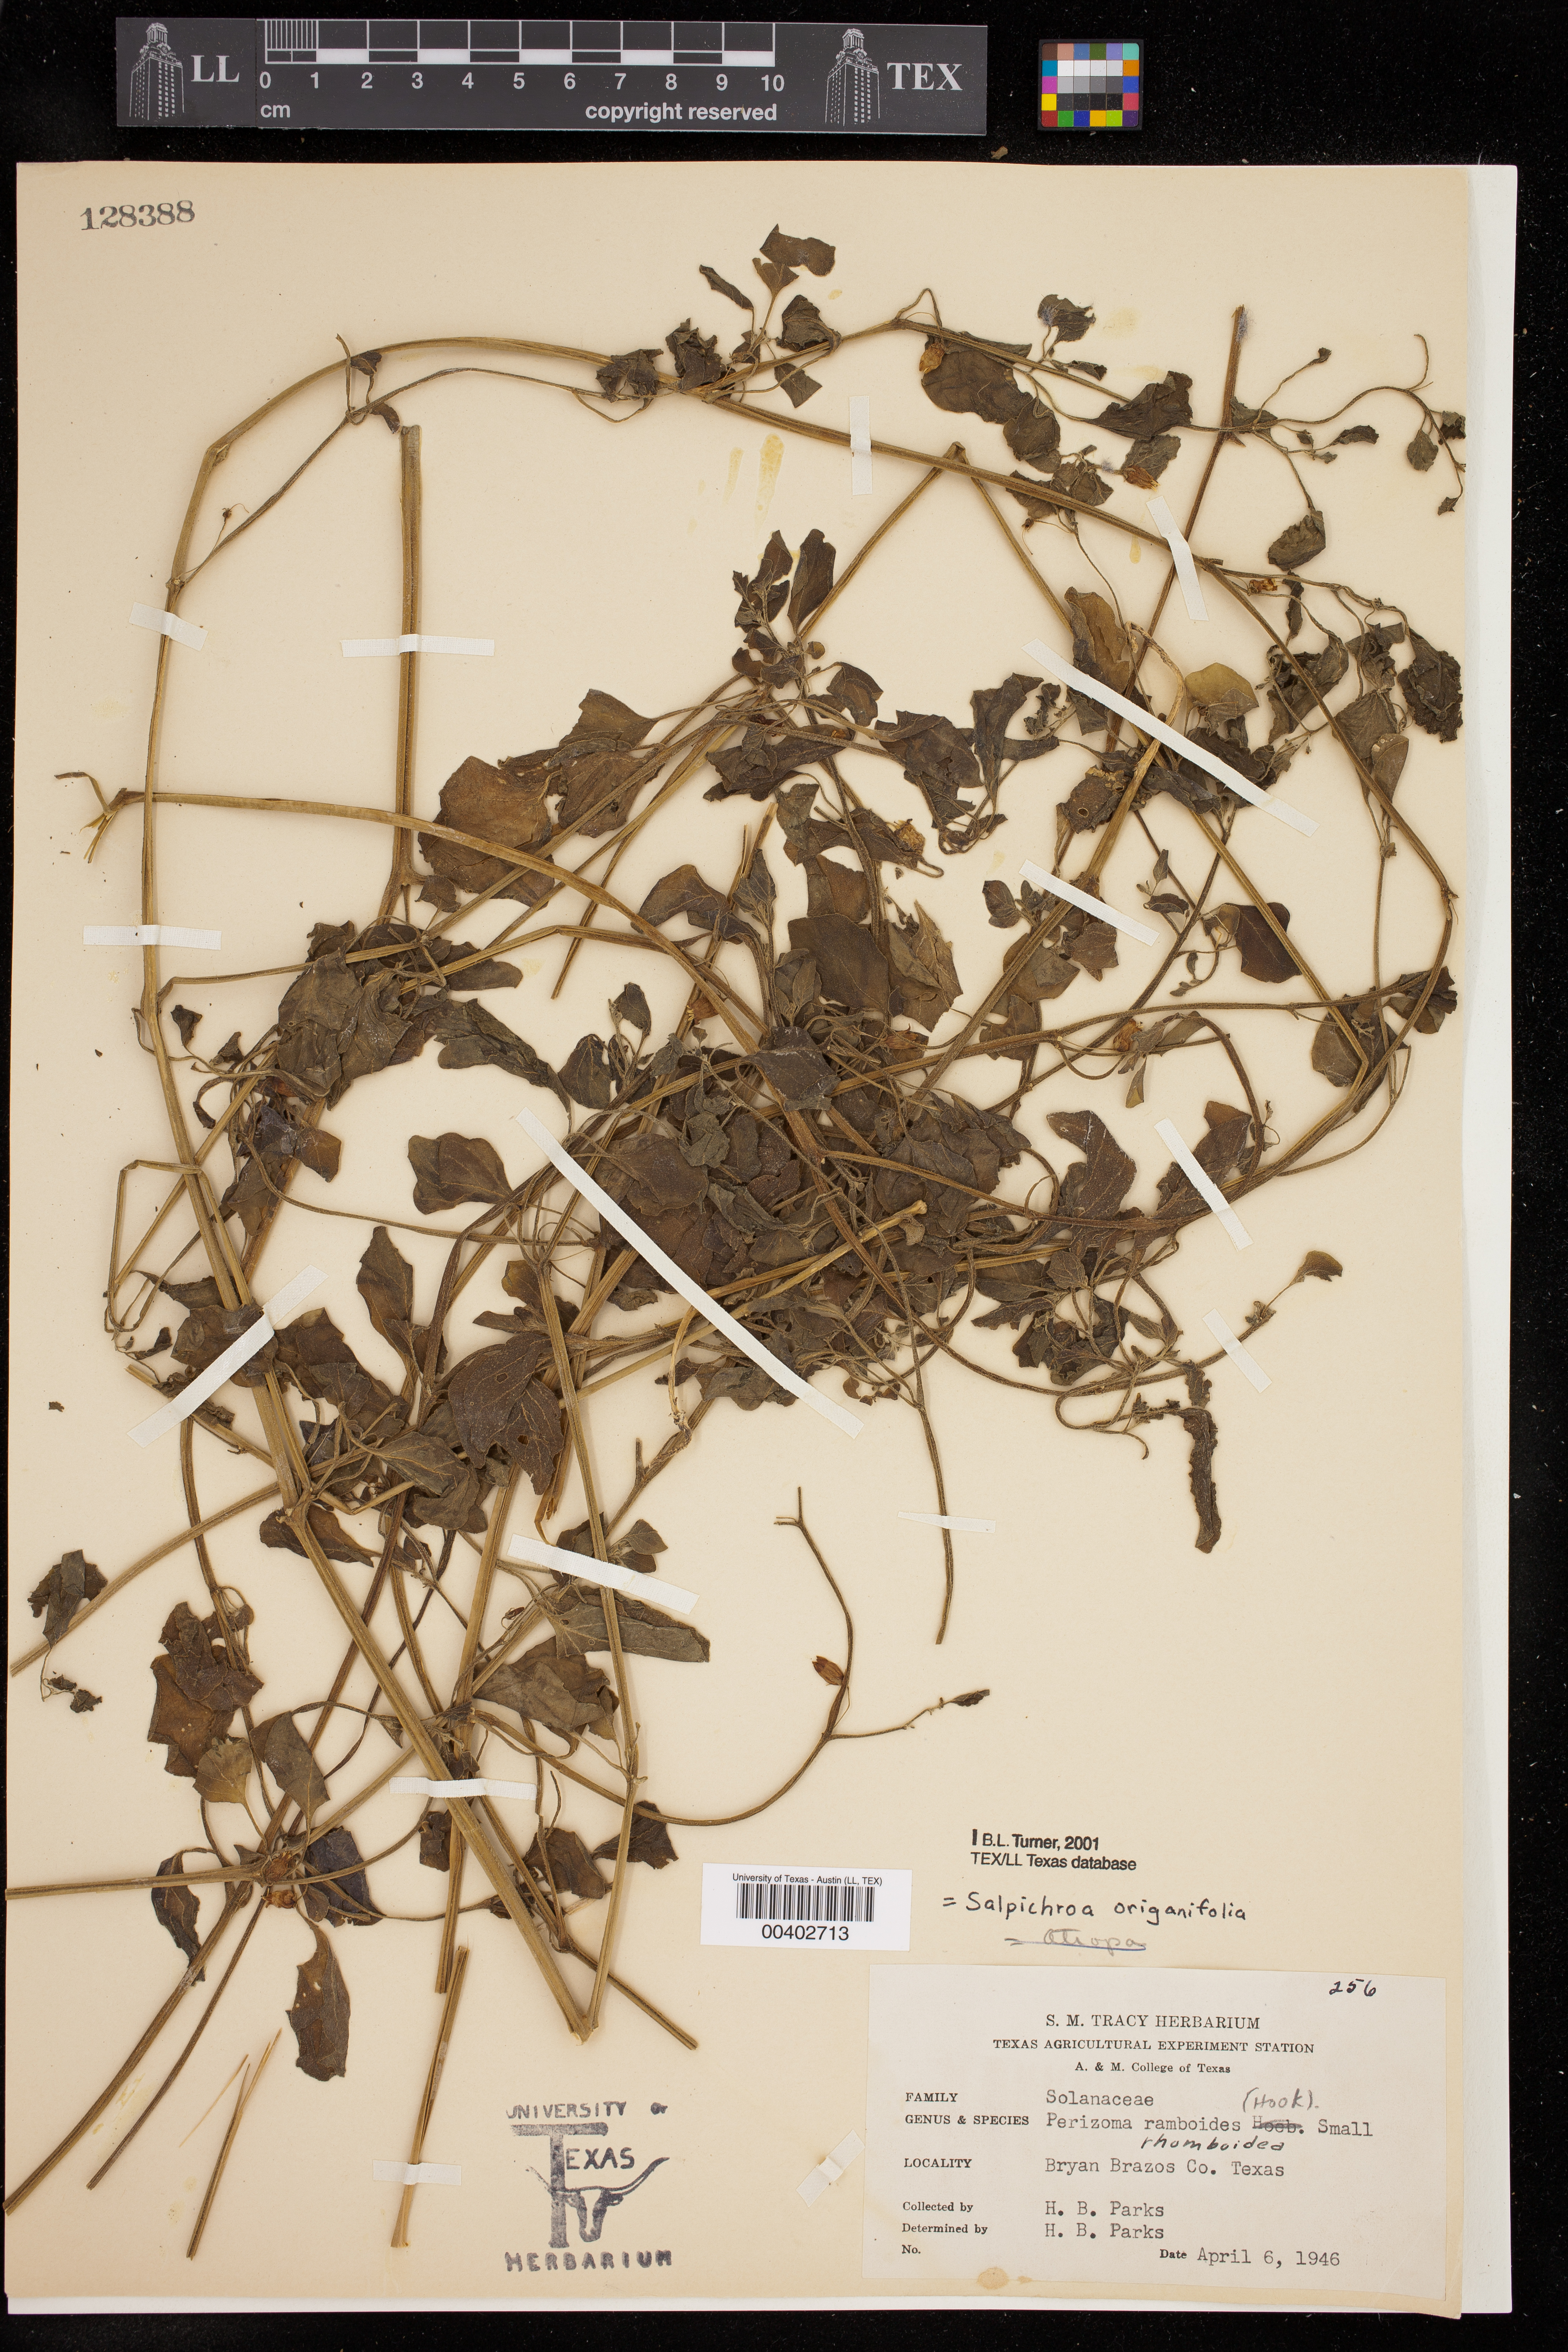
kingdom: Plantae
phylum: Tracheophyta
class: Magnoliopsida
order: Solanales
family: Solanaceae
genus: Salpichroa
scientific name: Salpichroa origanifolia
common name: Lily-of-the-valley-vine
